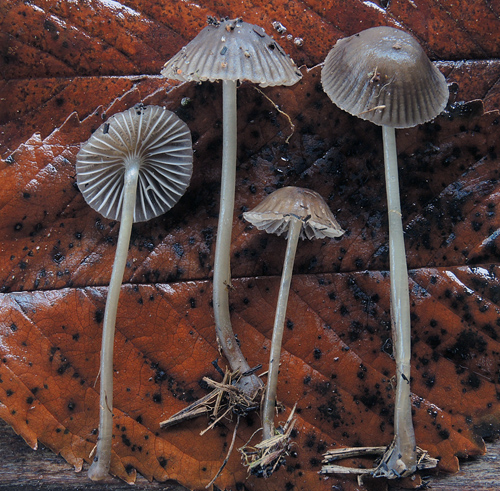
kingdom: Fungi
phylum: Basidiomycota
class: Agaricomycetes
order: Agaricales
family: Mycenaceae
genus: Mycena
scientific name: Mycena epipterygia
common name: Yellowleg bonnet
